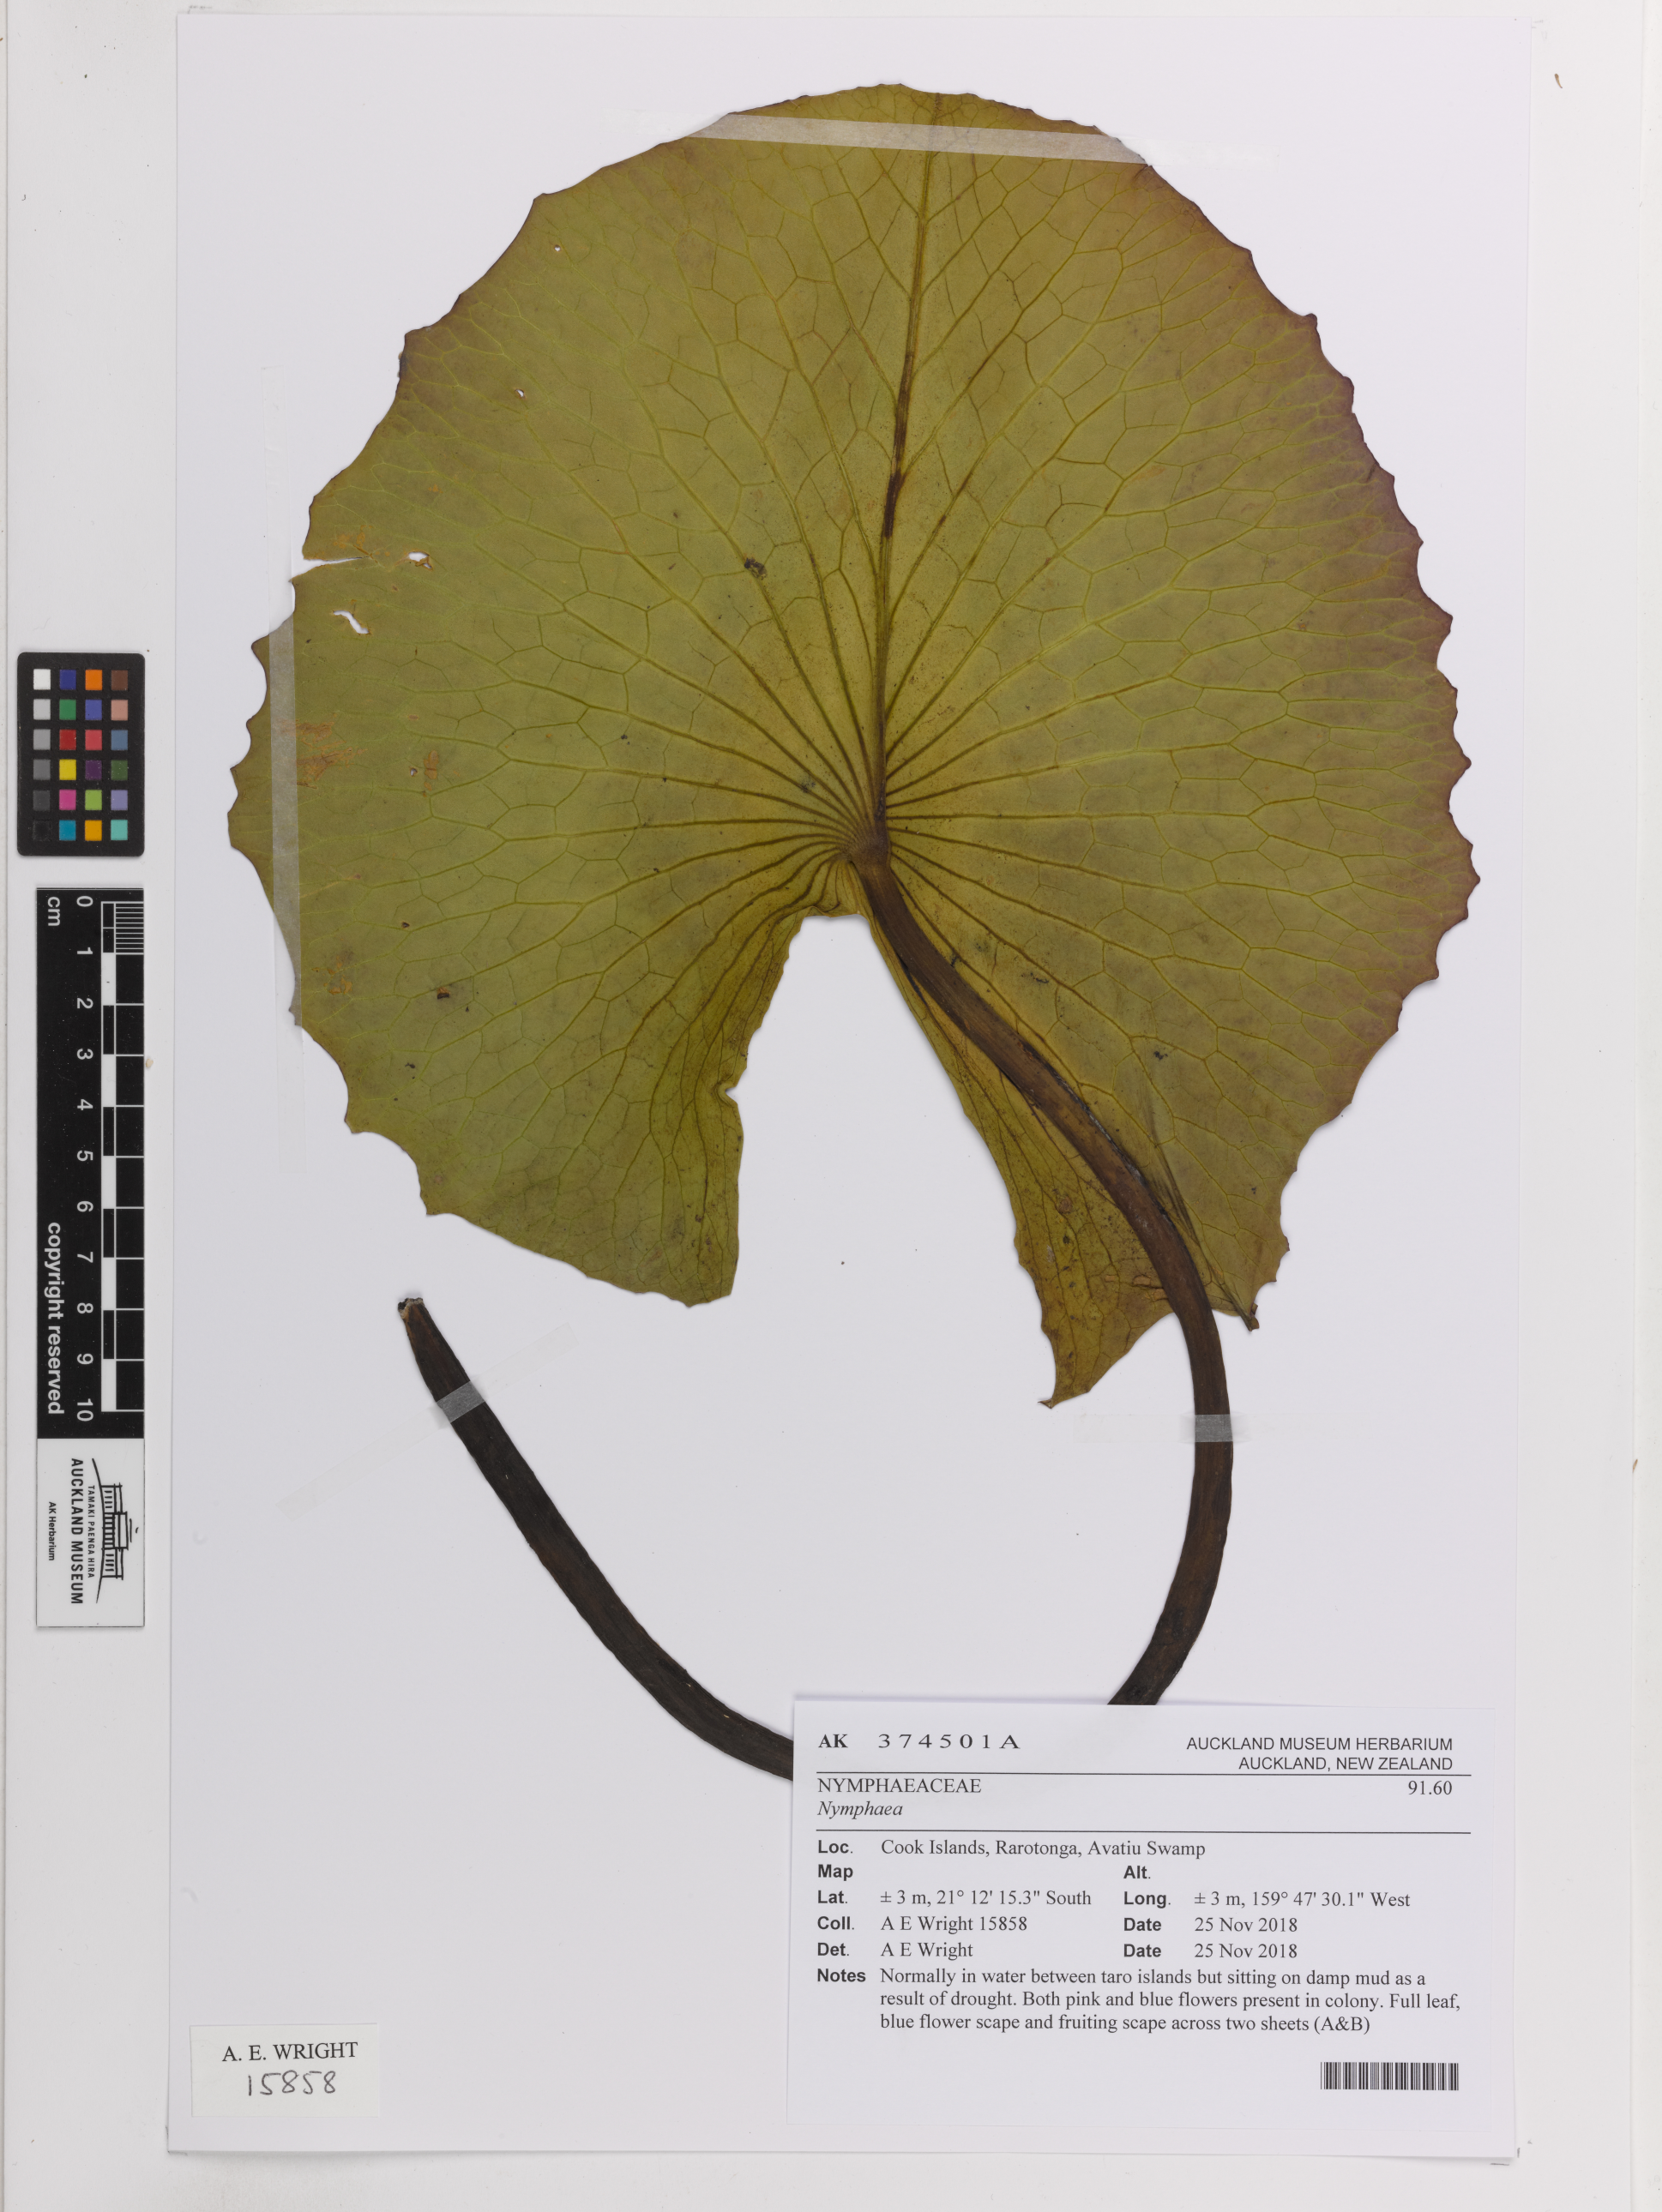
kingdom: Plantae
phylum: Tracheophyta
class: Magnoliopsida
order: Nymphaeales
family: Nymphaeaceae
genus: Nymphaea
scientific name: Nymphaea
